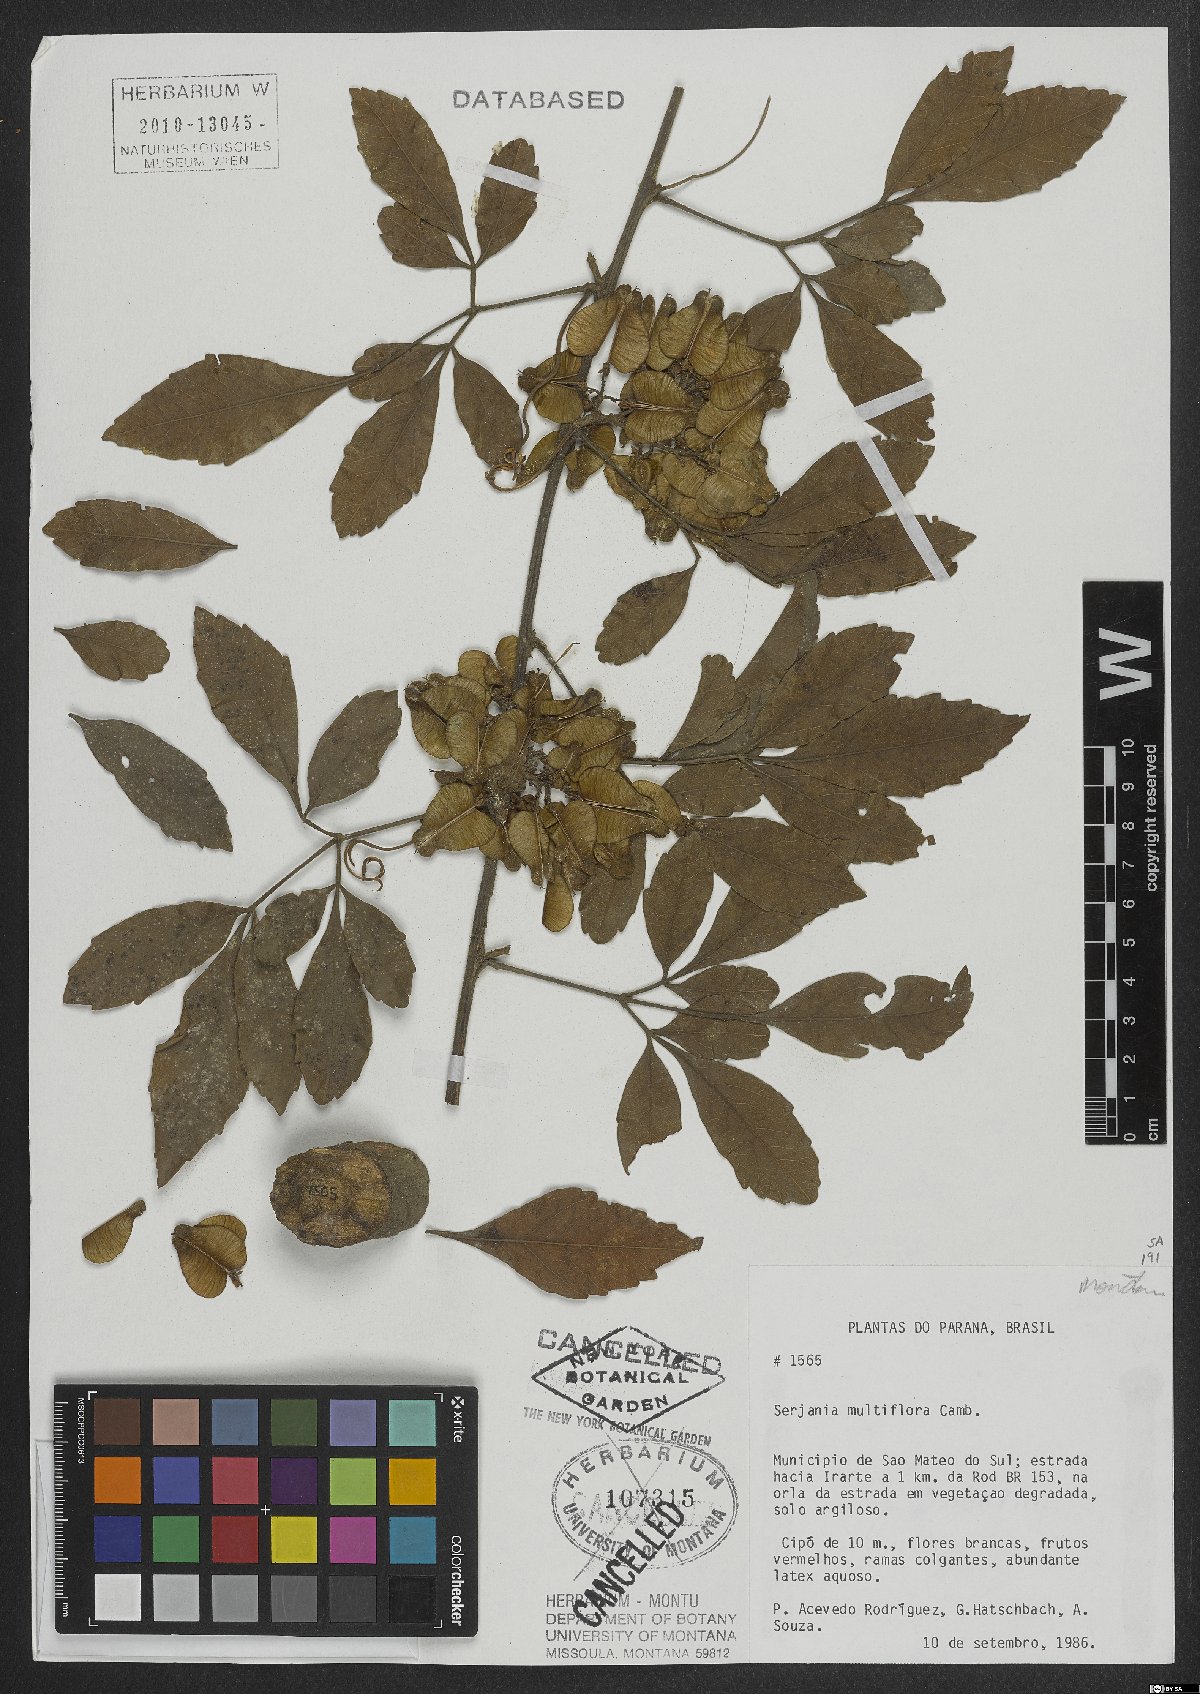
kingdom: Plantae
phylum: Tracheophyta
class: Magnoliopsida
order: Sapindales
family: Sapindaceae
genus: Serjania
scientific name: Serjania multiflora
